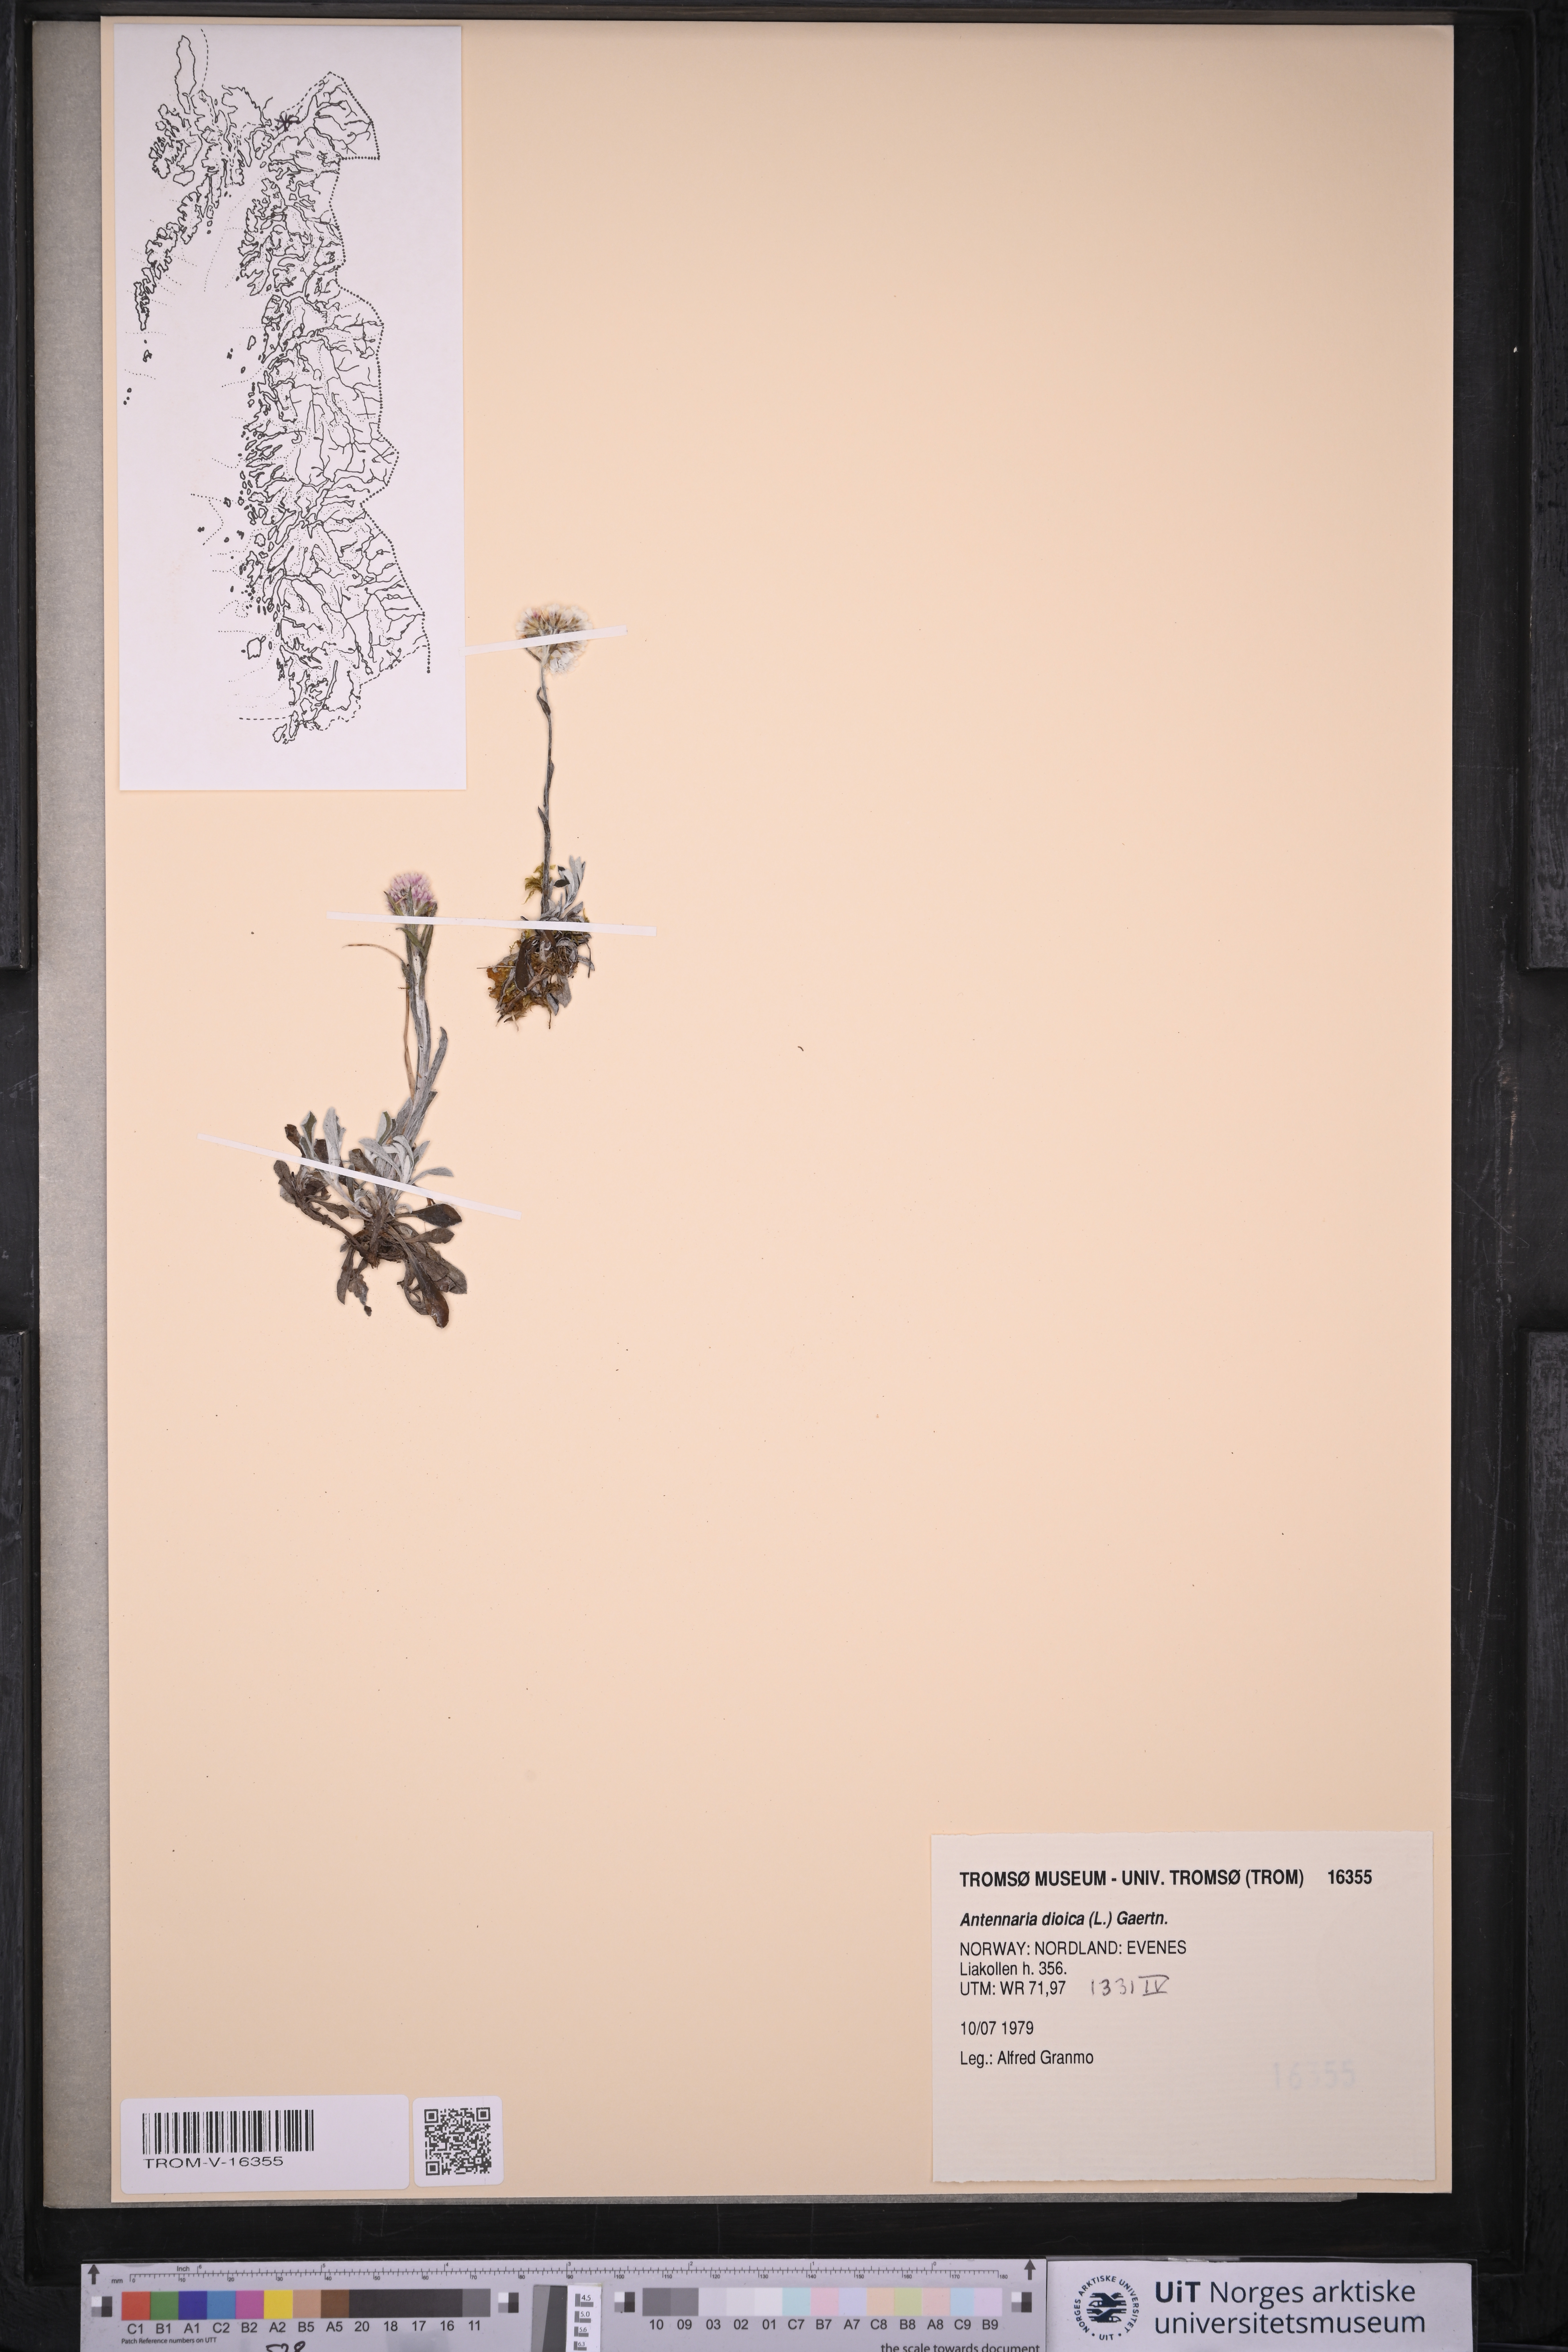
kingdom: Plantae
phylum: Tracheophyta
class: Magnoliopsida
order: Asterales
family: Asteraceae
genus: Antennaria
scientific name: Antennaria dioica
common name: Mountain everlasting
